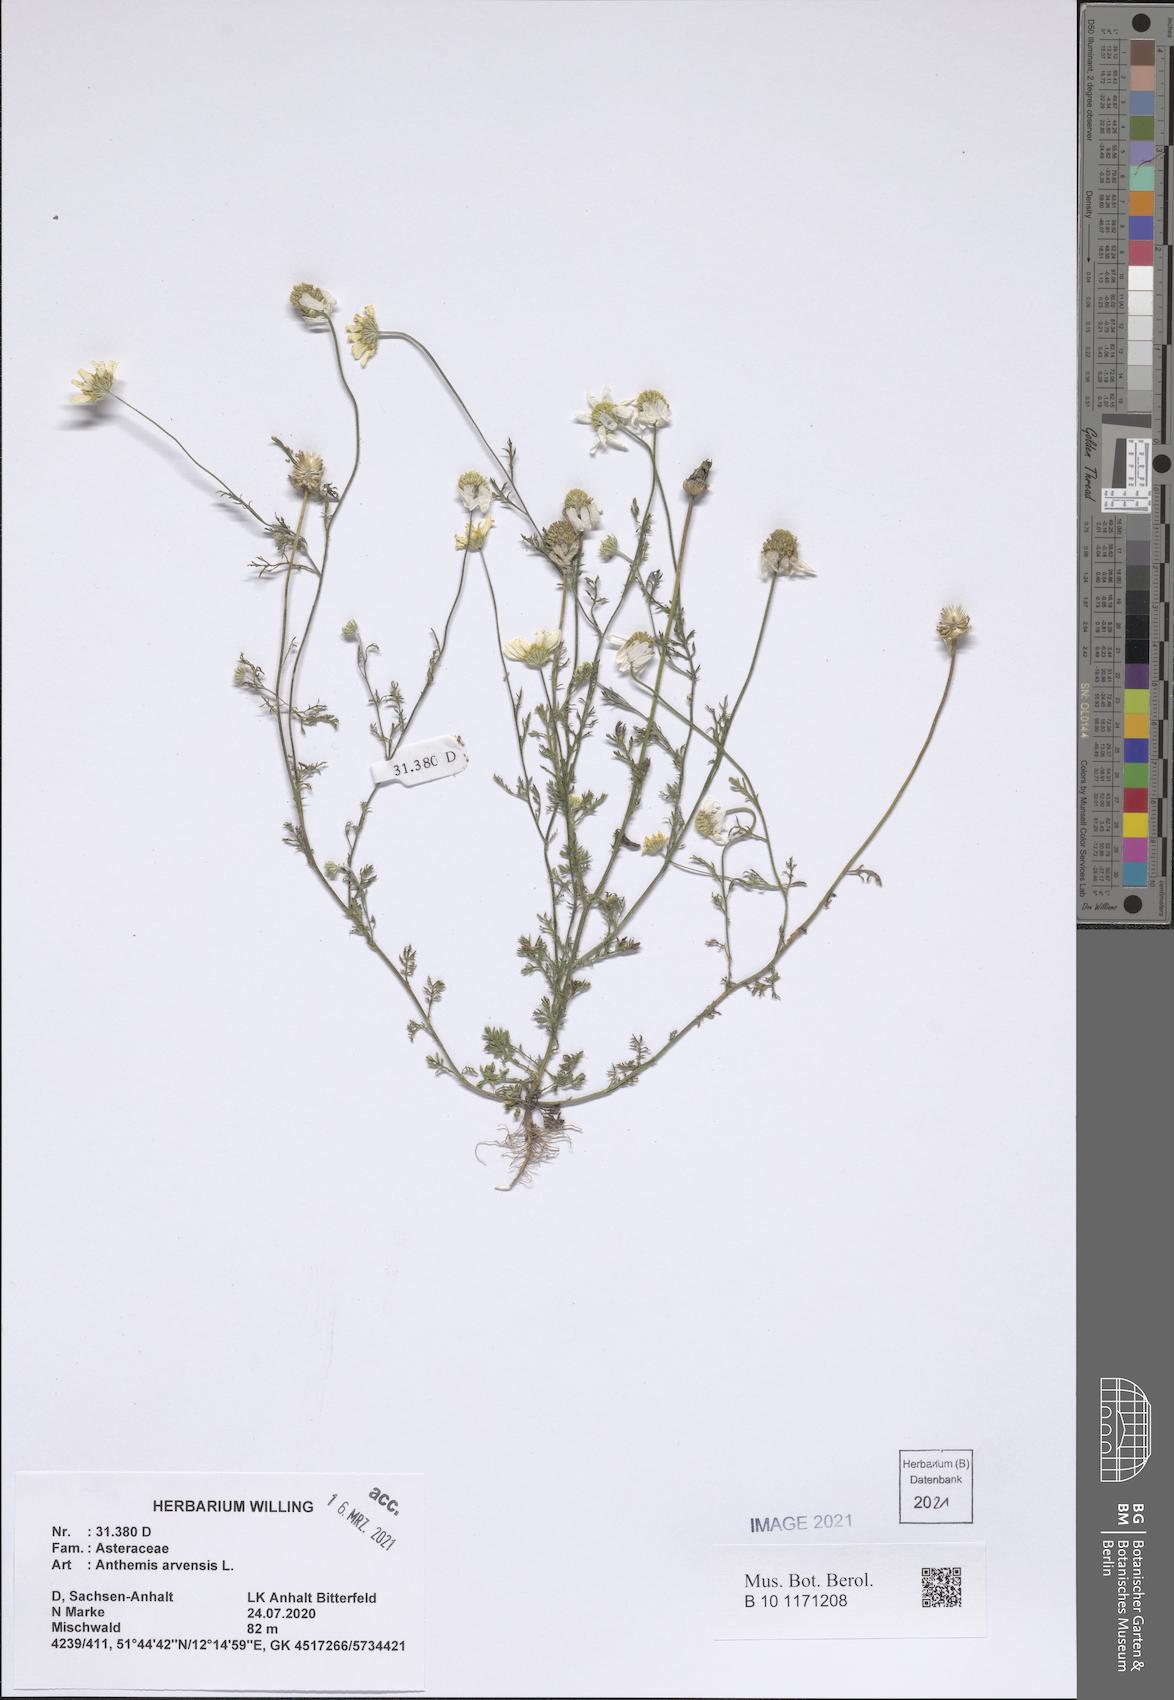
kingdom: Plantae
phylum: Tracheophyta
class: Magnoliopsida
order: Asterales
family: Asteraceae
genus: Anthemis
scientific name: Anthemis arvensis
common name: Corn chamomile
